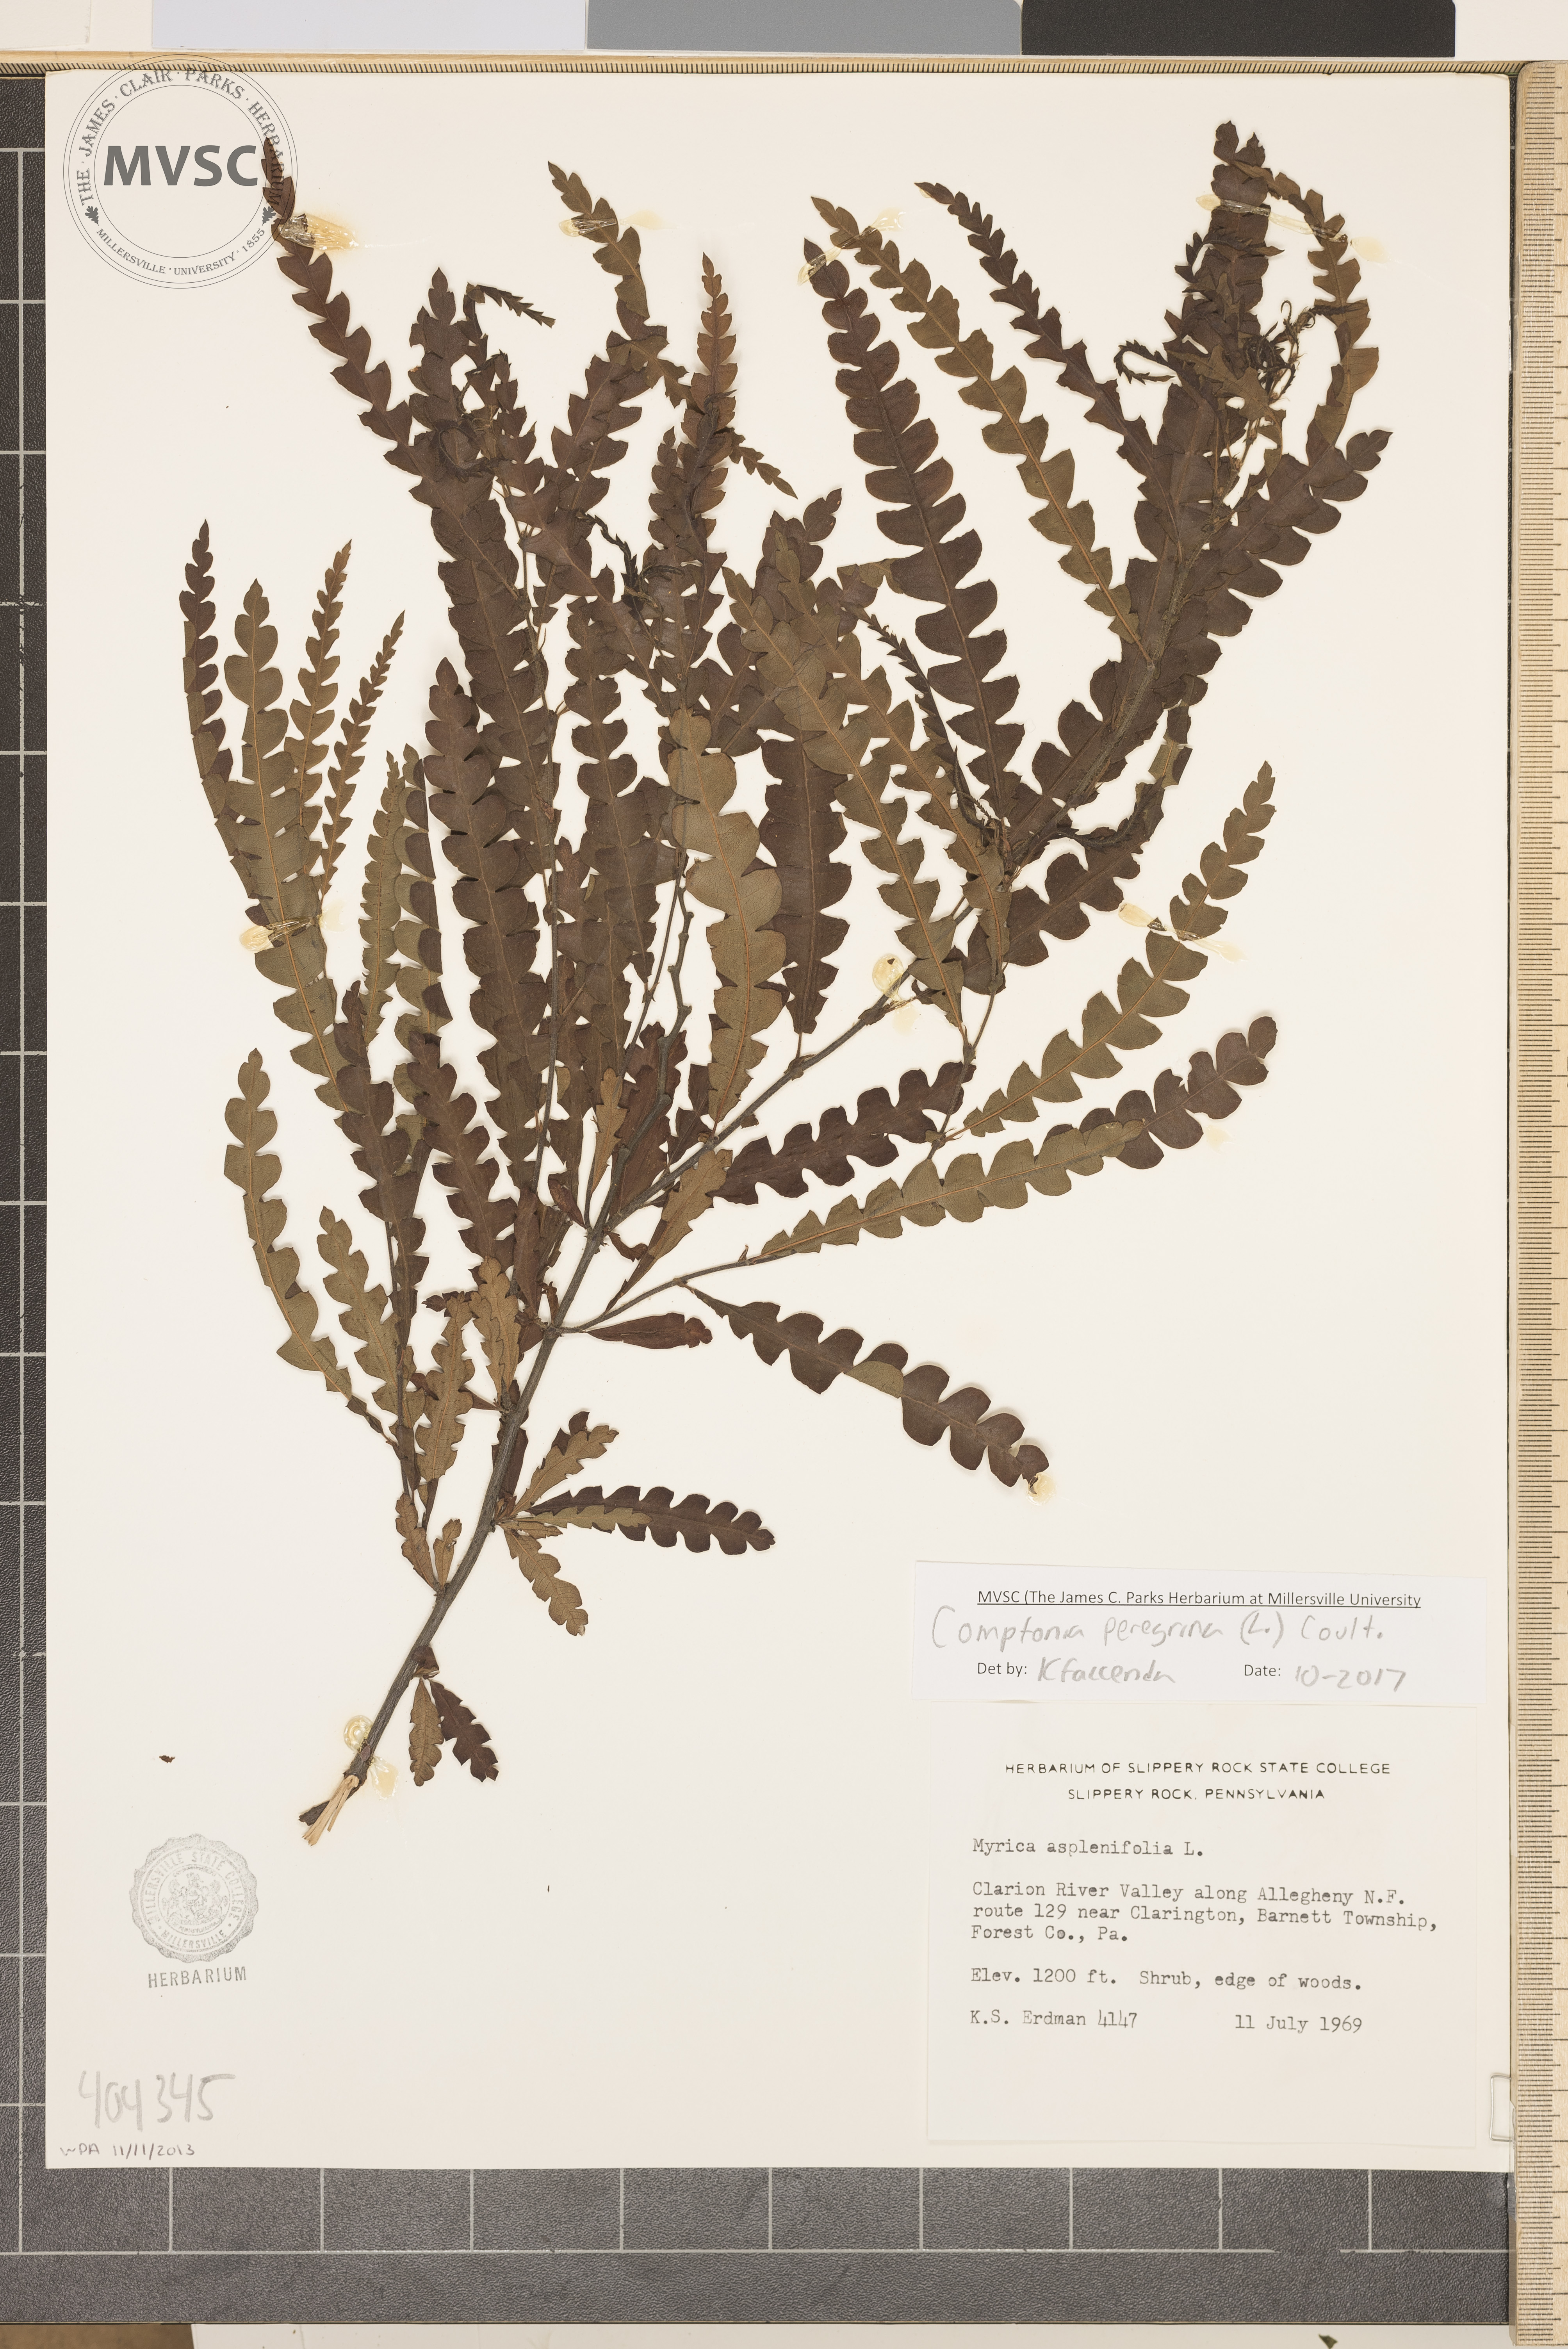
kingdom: Plantae
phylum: Tracheophyta
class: Magnoliopsida
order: Fagales
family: Myricaceae
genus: Comptonia
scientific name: Comptonia peregrina
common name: Sweetfern
